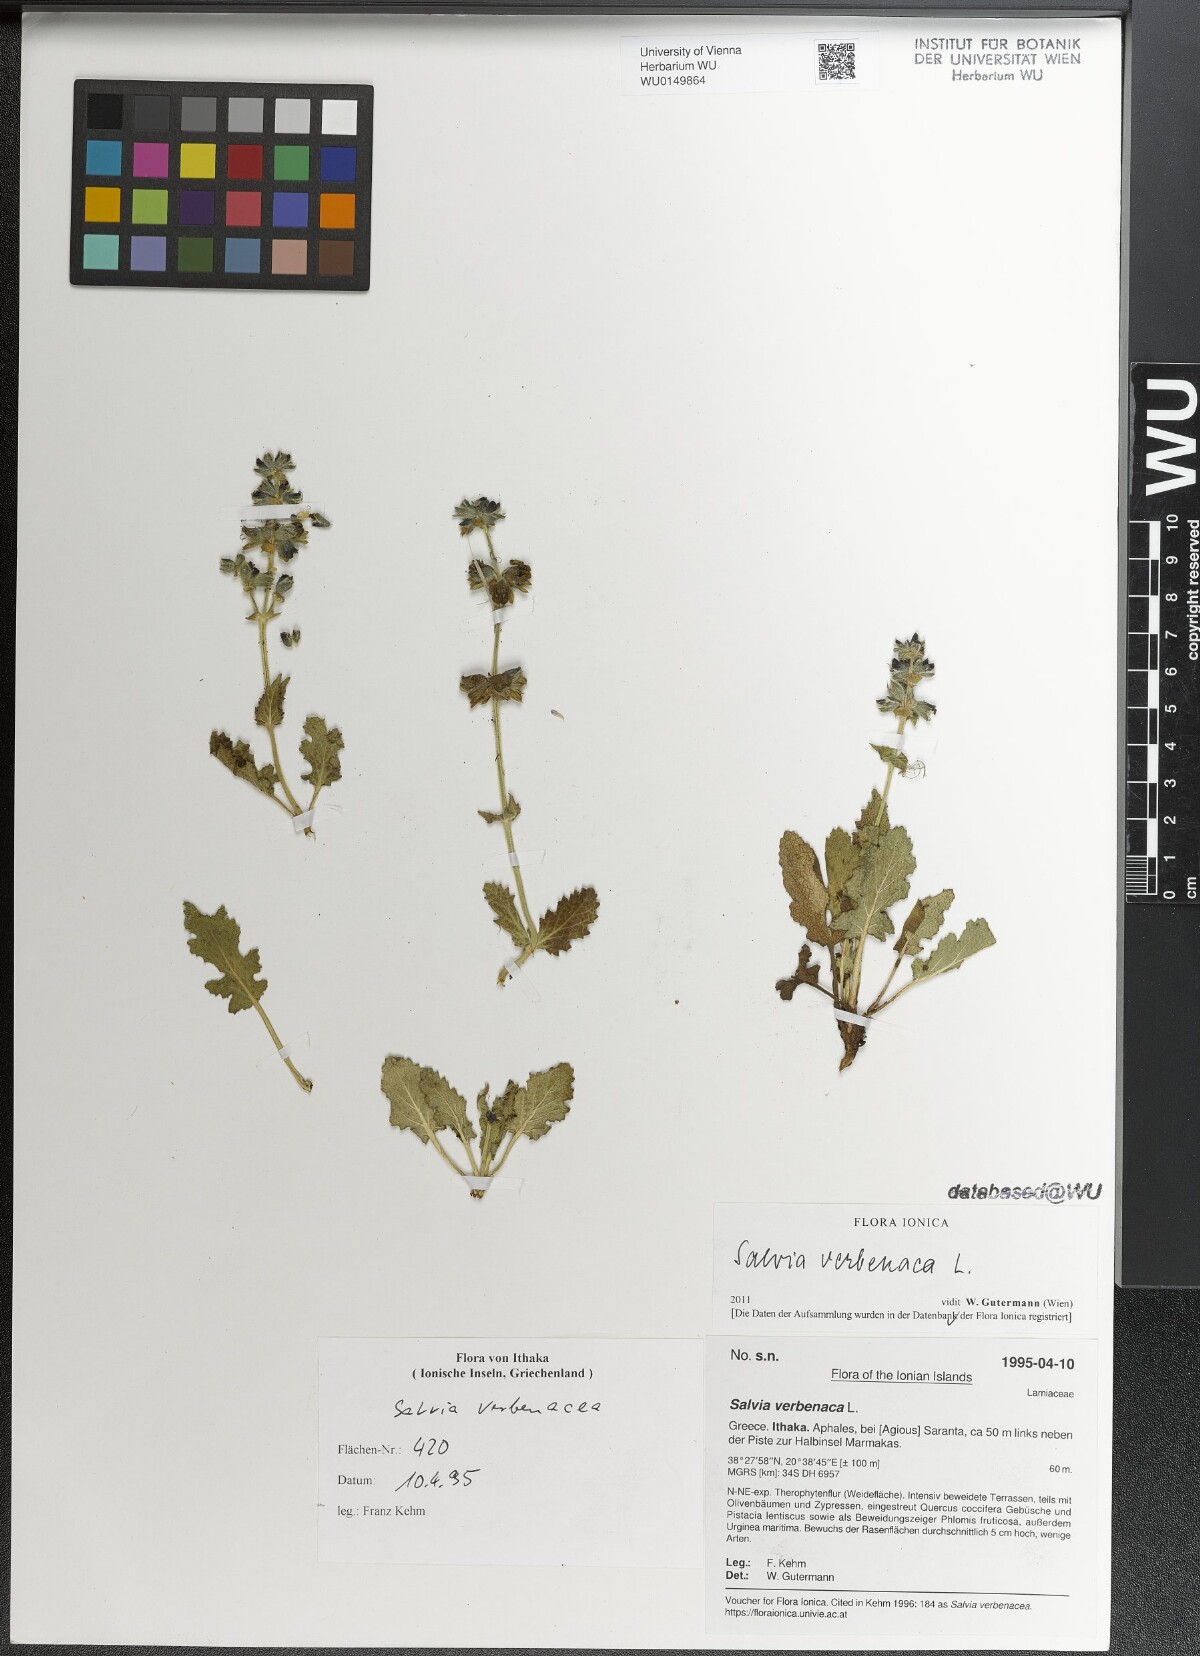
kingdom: Plantae
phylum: Tracheophyta
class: Magnoliopsida
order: Lamiales
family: Lamiaceae
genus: Salvia
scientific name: Salvia verbenaca
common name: Wild clary
